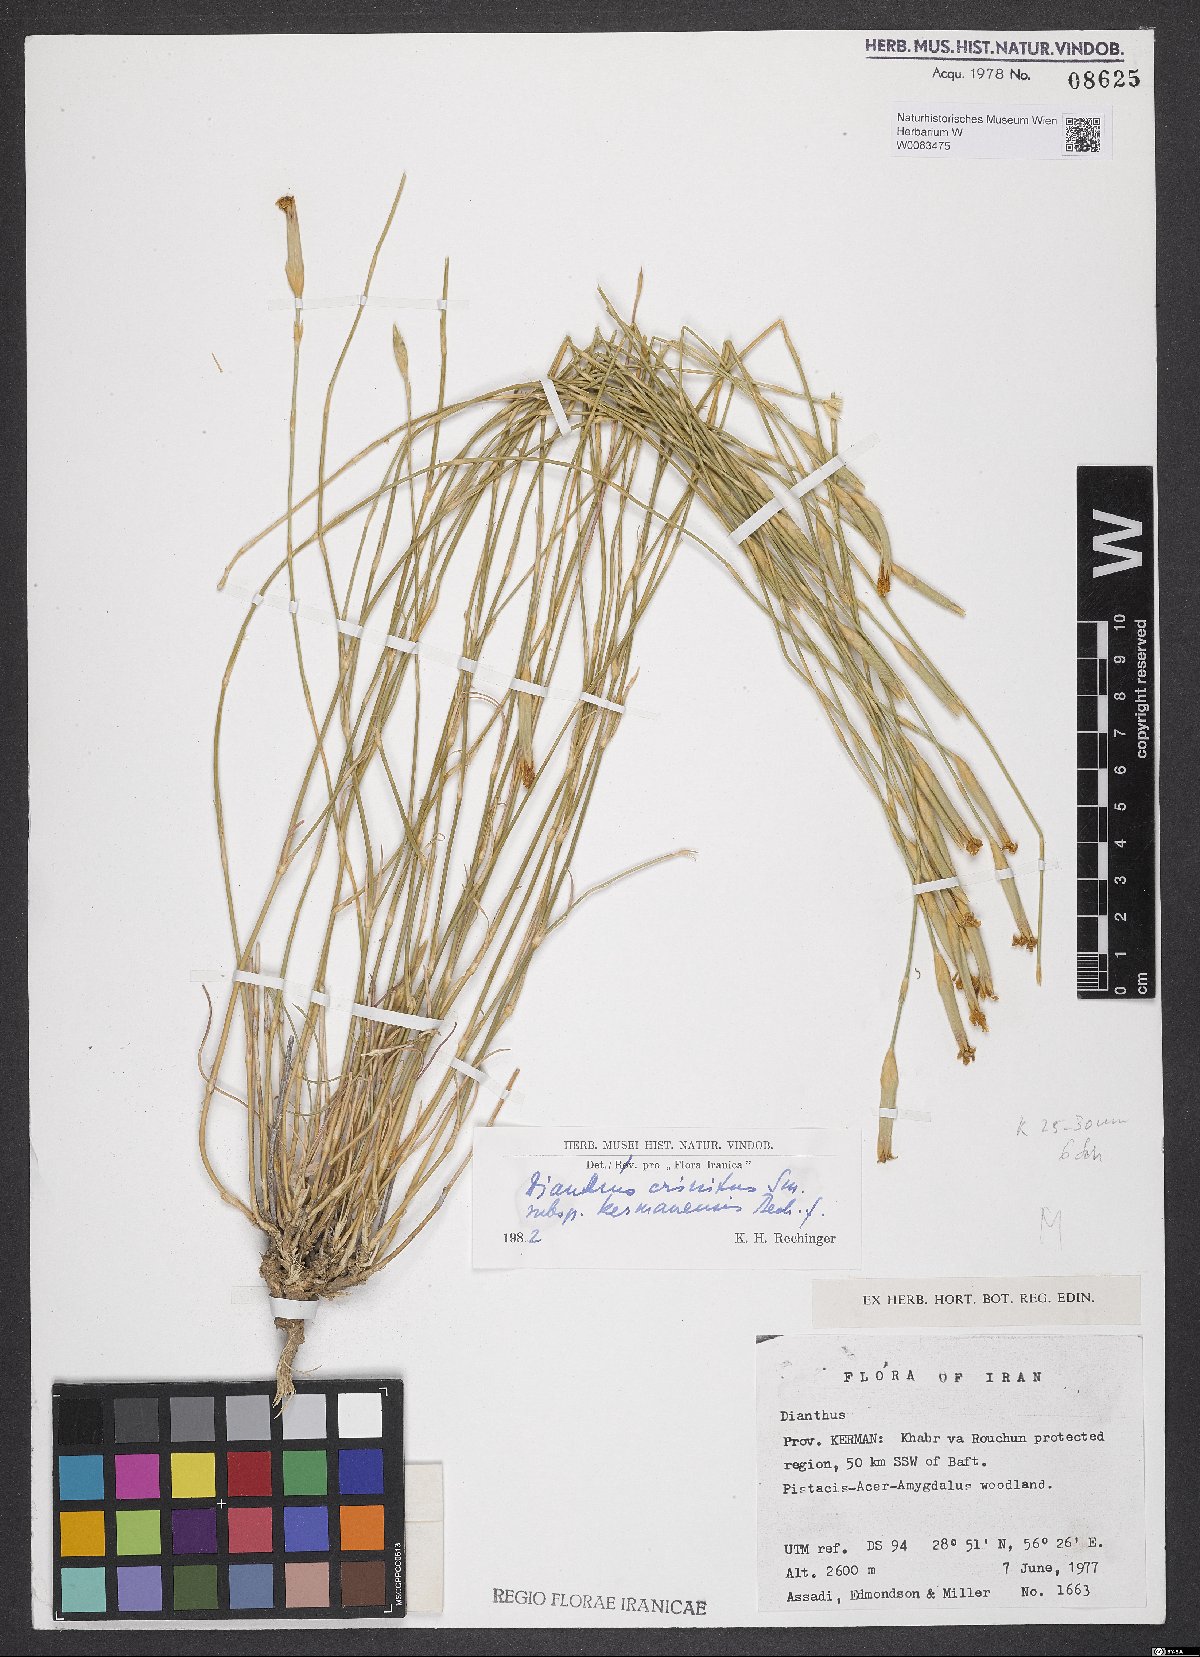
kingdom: Plantae
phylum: Tracheophyta
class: Magnoliopsida
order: Caryophyllales
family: Caryophyllaceae
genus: Dianthus
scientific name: Dianthus crinitus
